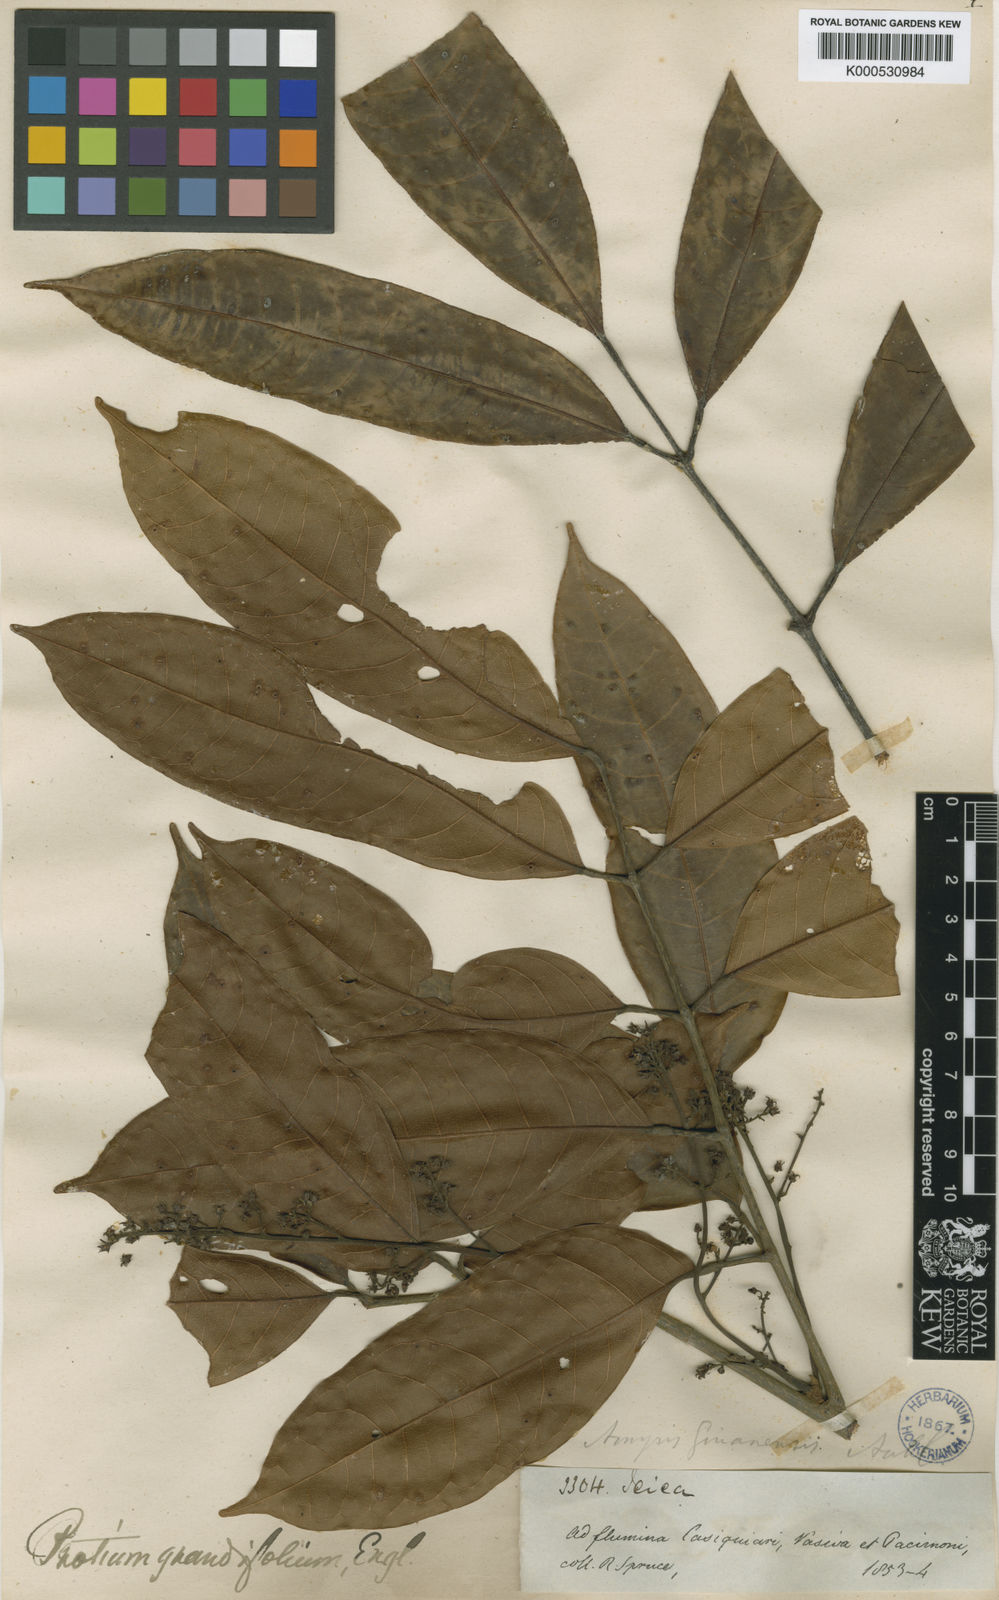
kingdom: Plantae
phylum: Tracheophyta
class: Magnoliopsida
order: Sapindales
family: Burseraceae
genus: Protium
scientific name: Protium grandifolium
